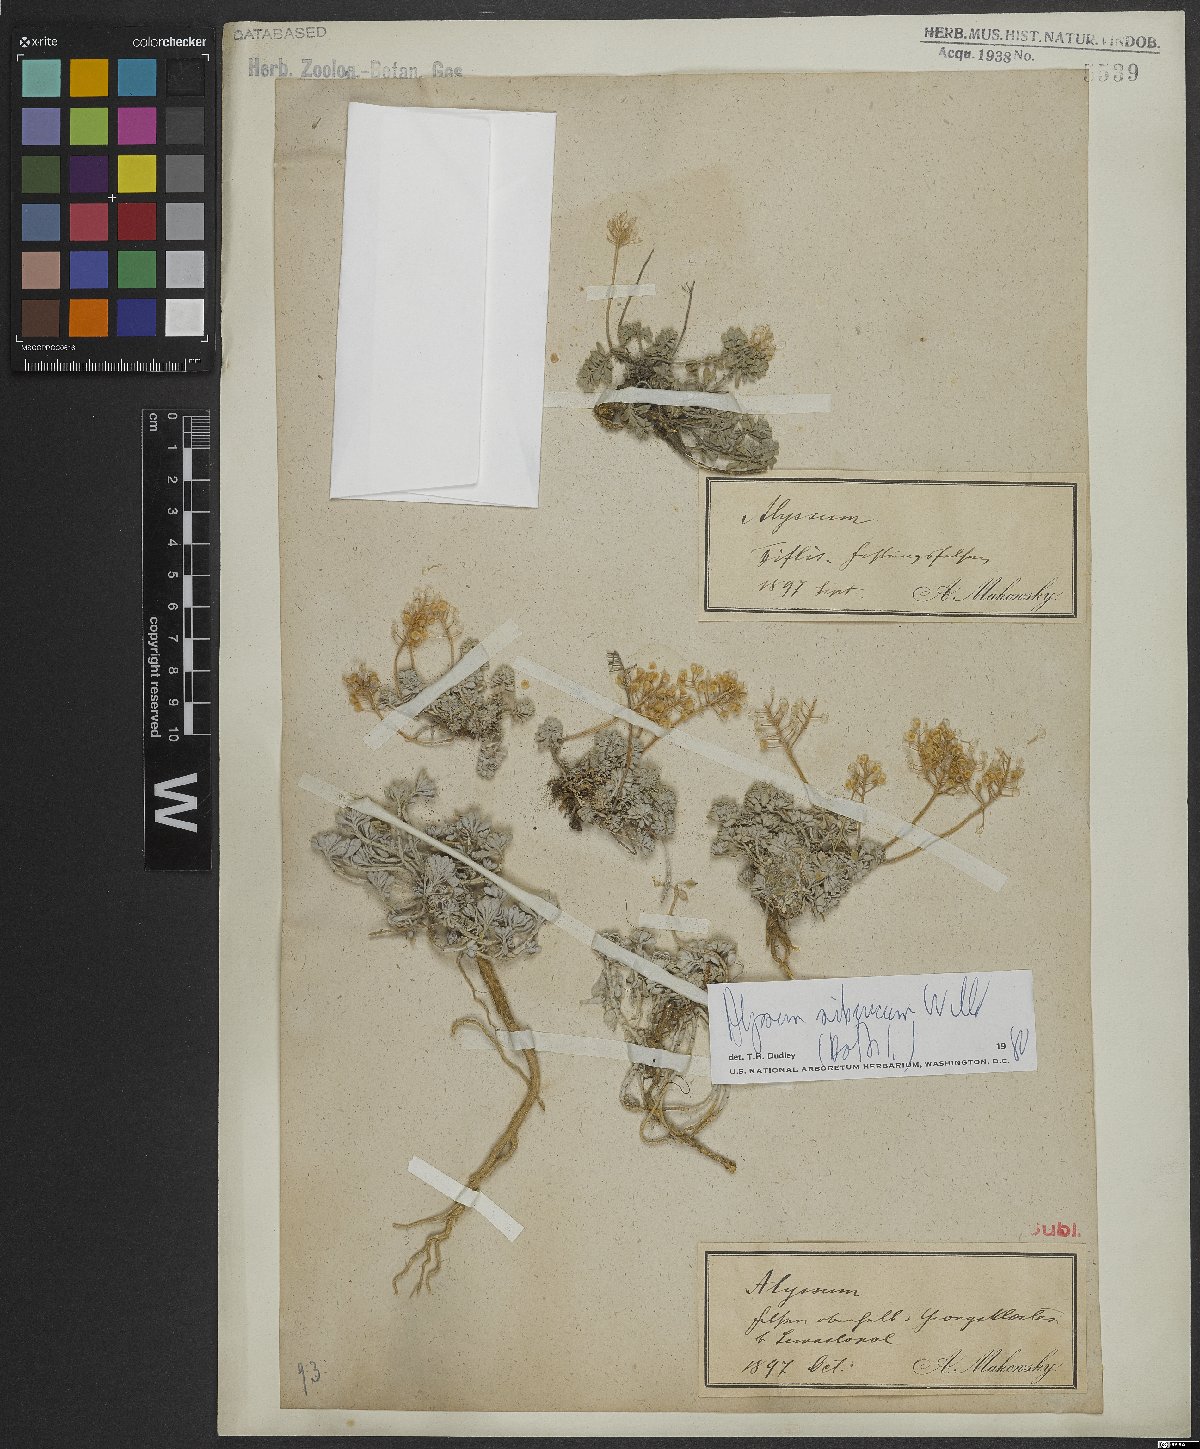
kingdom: Plantae
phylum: Tracheophyta
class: Magnoliopsida
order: Brassicales
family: Brassicaceae
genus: Odontarrhena
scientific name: Odontarrhena sibirica
